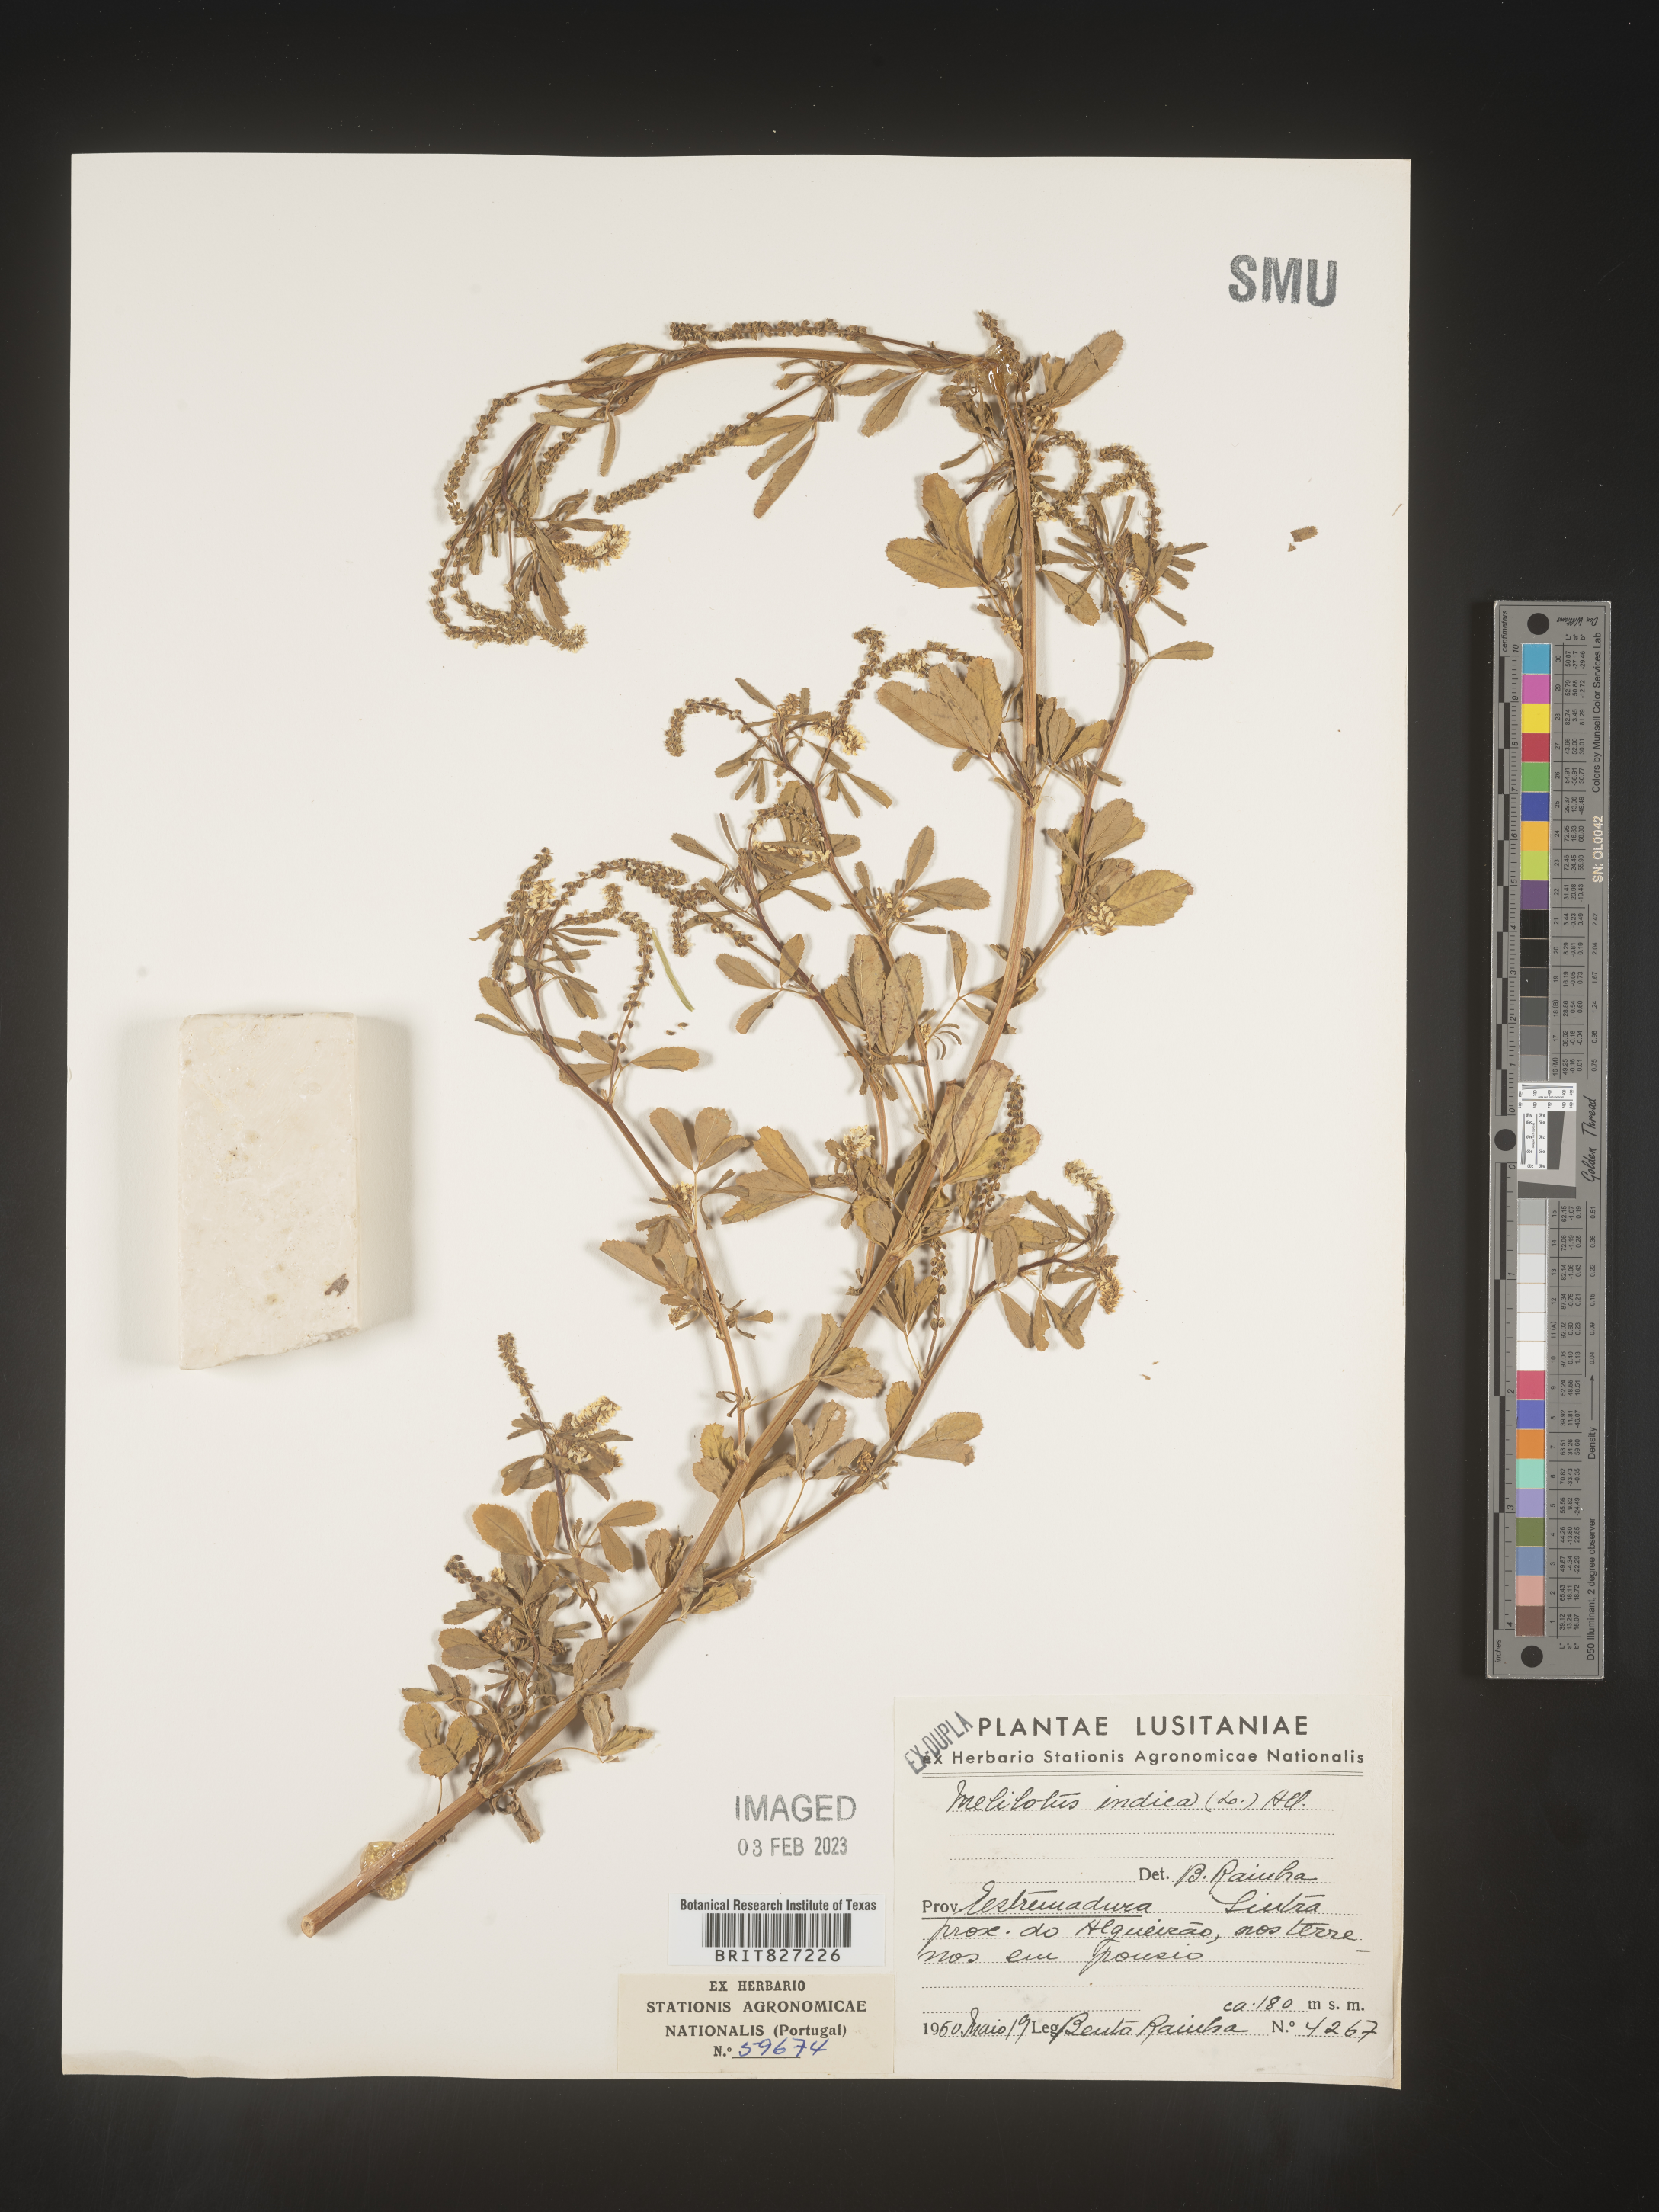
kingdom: Plantae
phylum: Tracheophyta
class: Magnoliopsida
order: Fabales
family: Fabaceae
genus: Melilotus
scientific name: Melilotus
